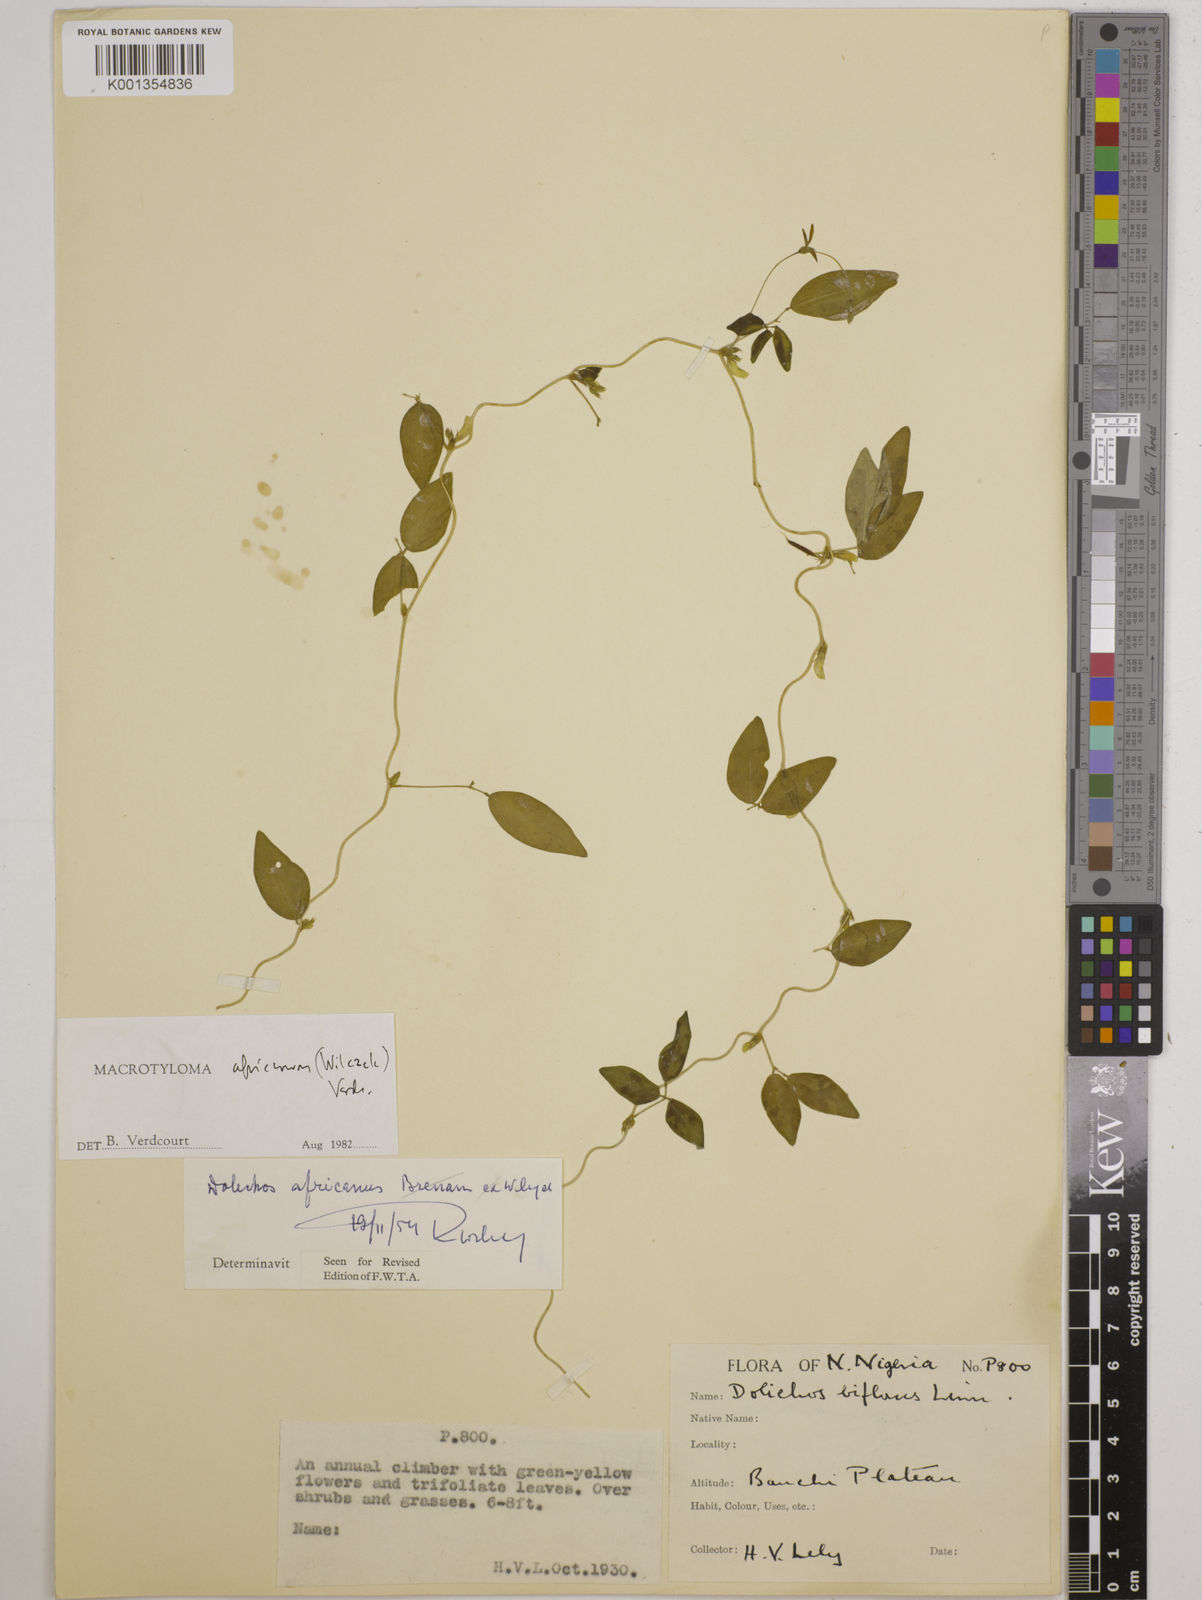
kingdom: Plantae
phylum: Tracheophyta
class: Magnoliopsida
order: Fabales
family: Fabaceae
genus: Macrotyloma
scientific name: Macrotyloma africanum
